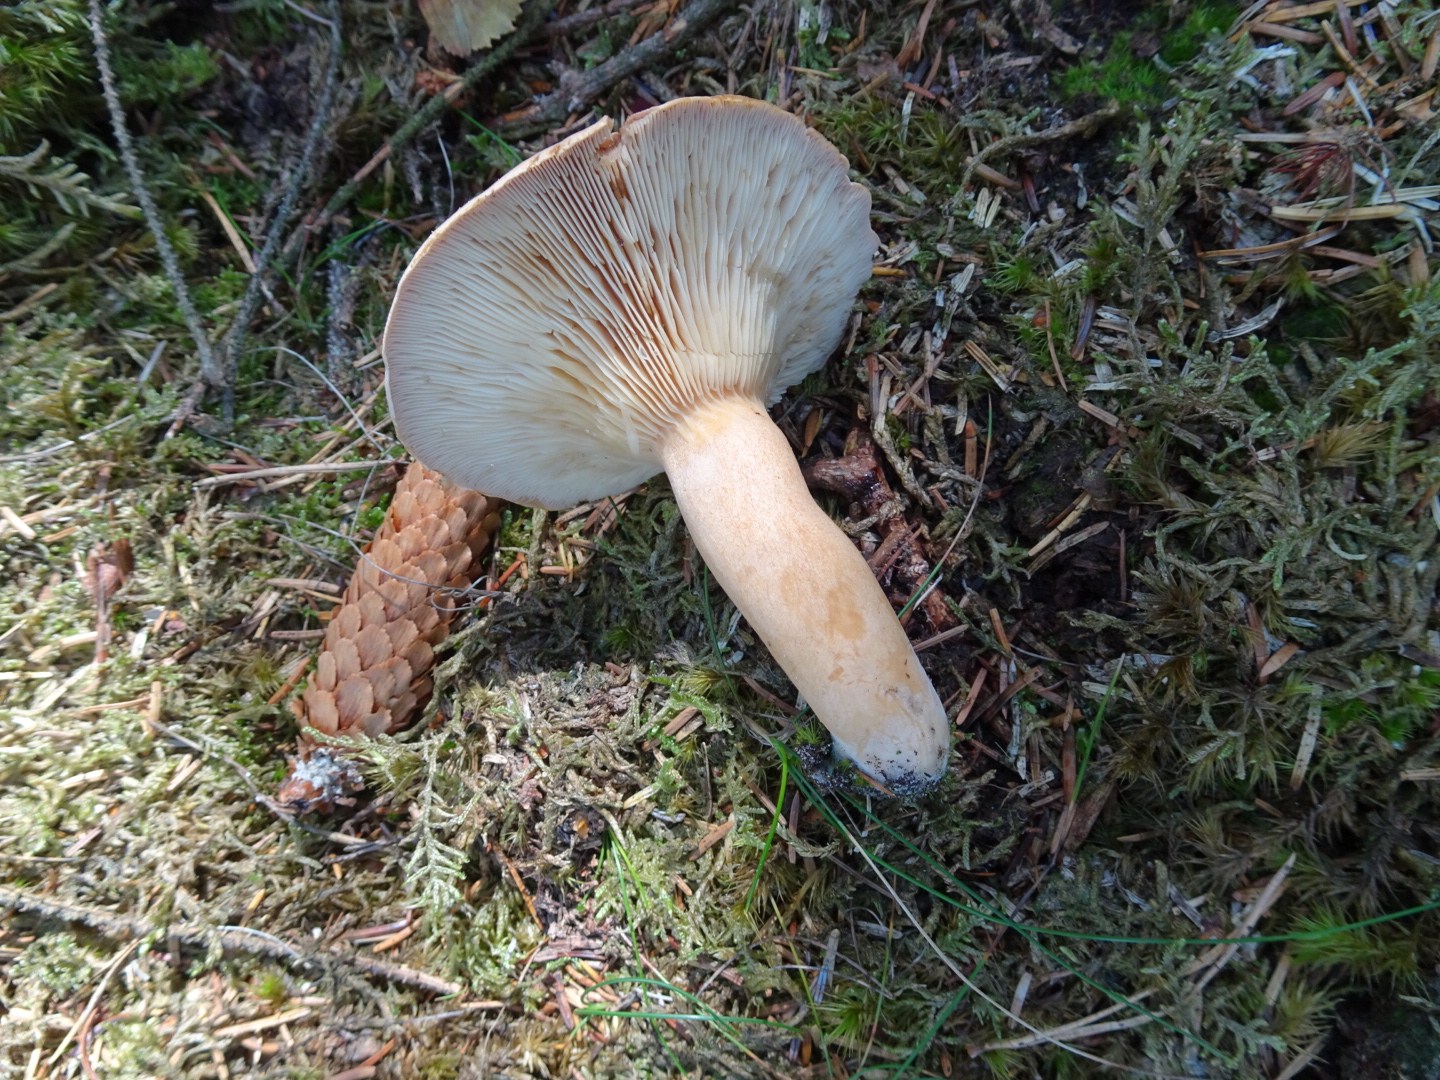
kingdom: Fungi
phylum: Basidiomycota
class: Agaricomycetes
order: Russulales
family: Russulaceae
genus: Lactarius
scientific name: Lactarius helvus
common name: mose-mælkehat
